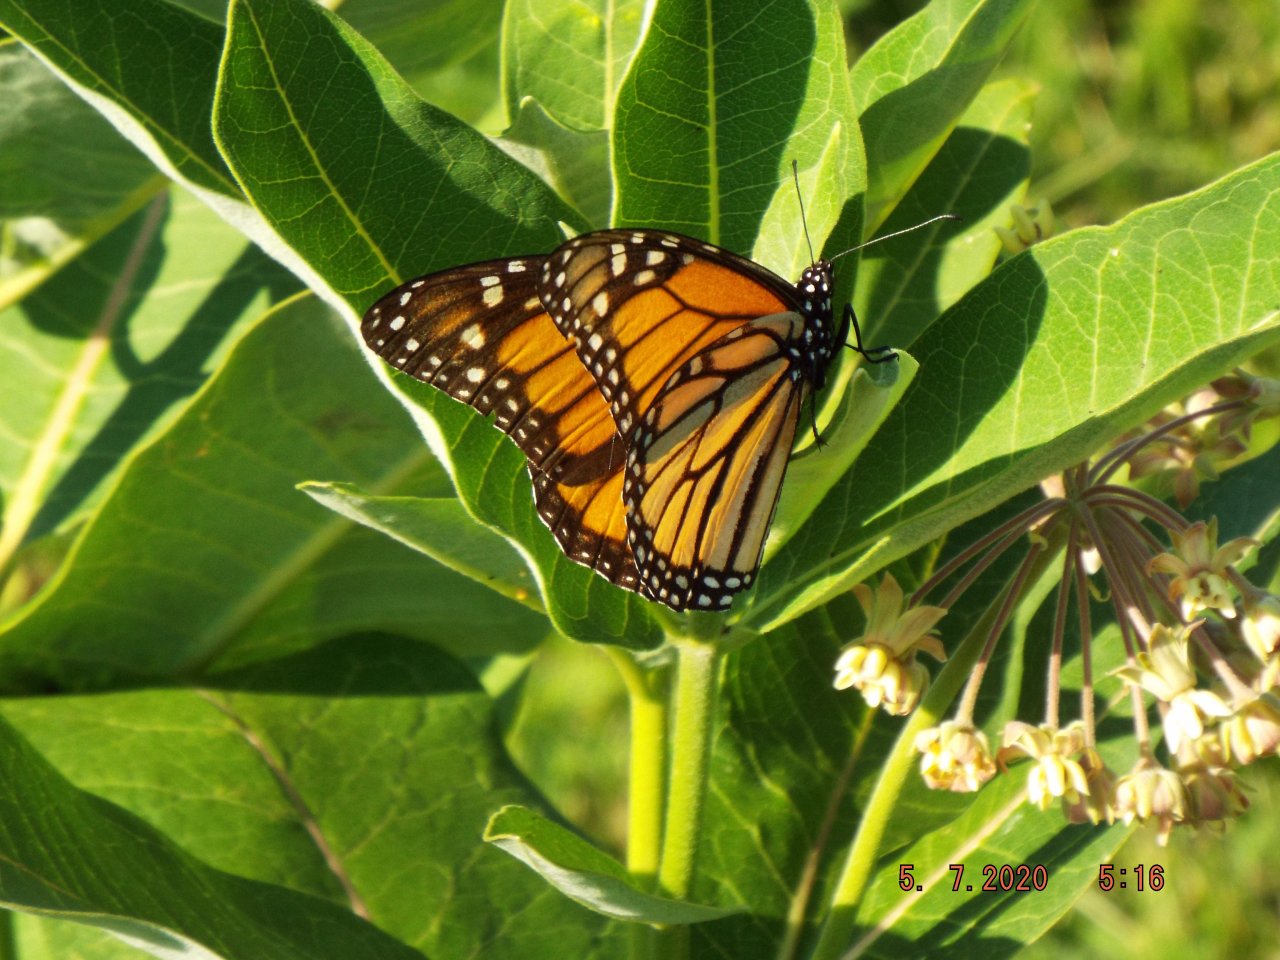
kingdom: Animalia
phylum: Arthropoda
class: Insecta
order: Lepidoptera
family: Nymphalidae
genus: Danaus
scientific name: Danaus plexippus
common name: Monarch
